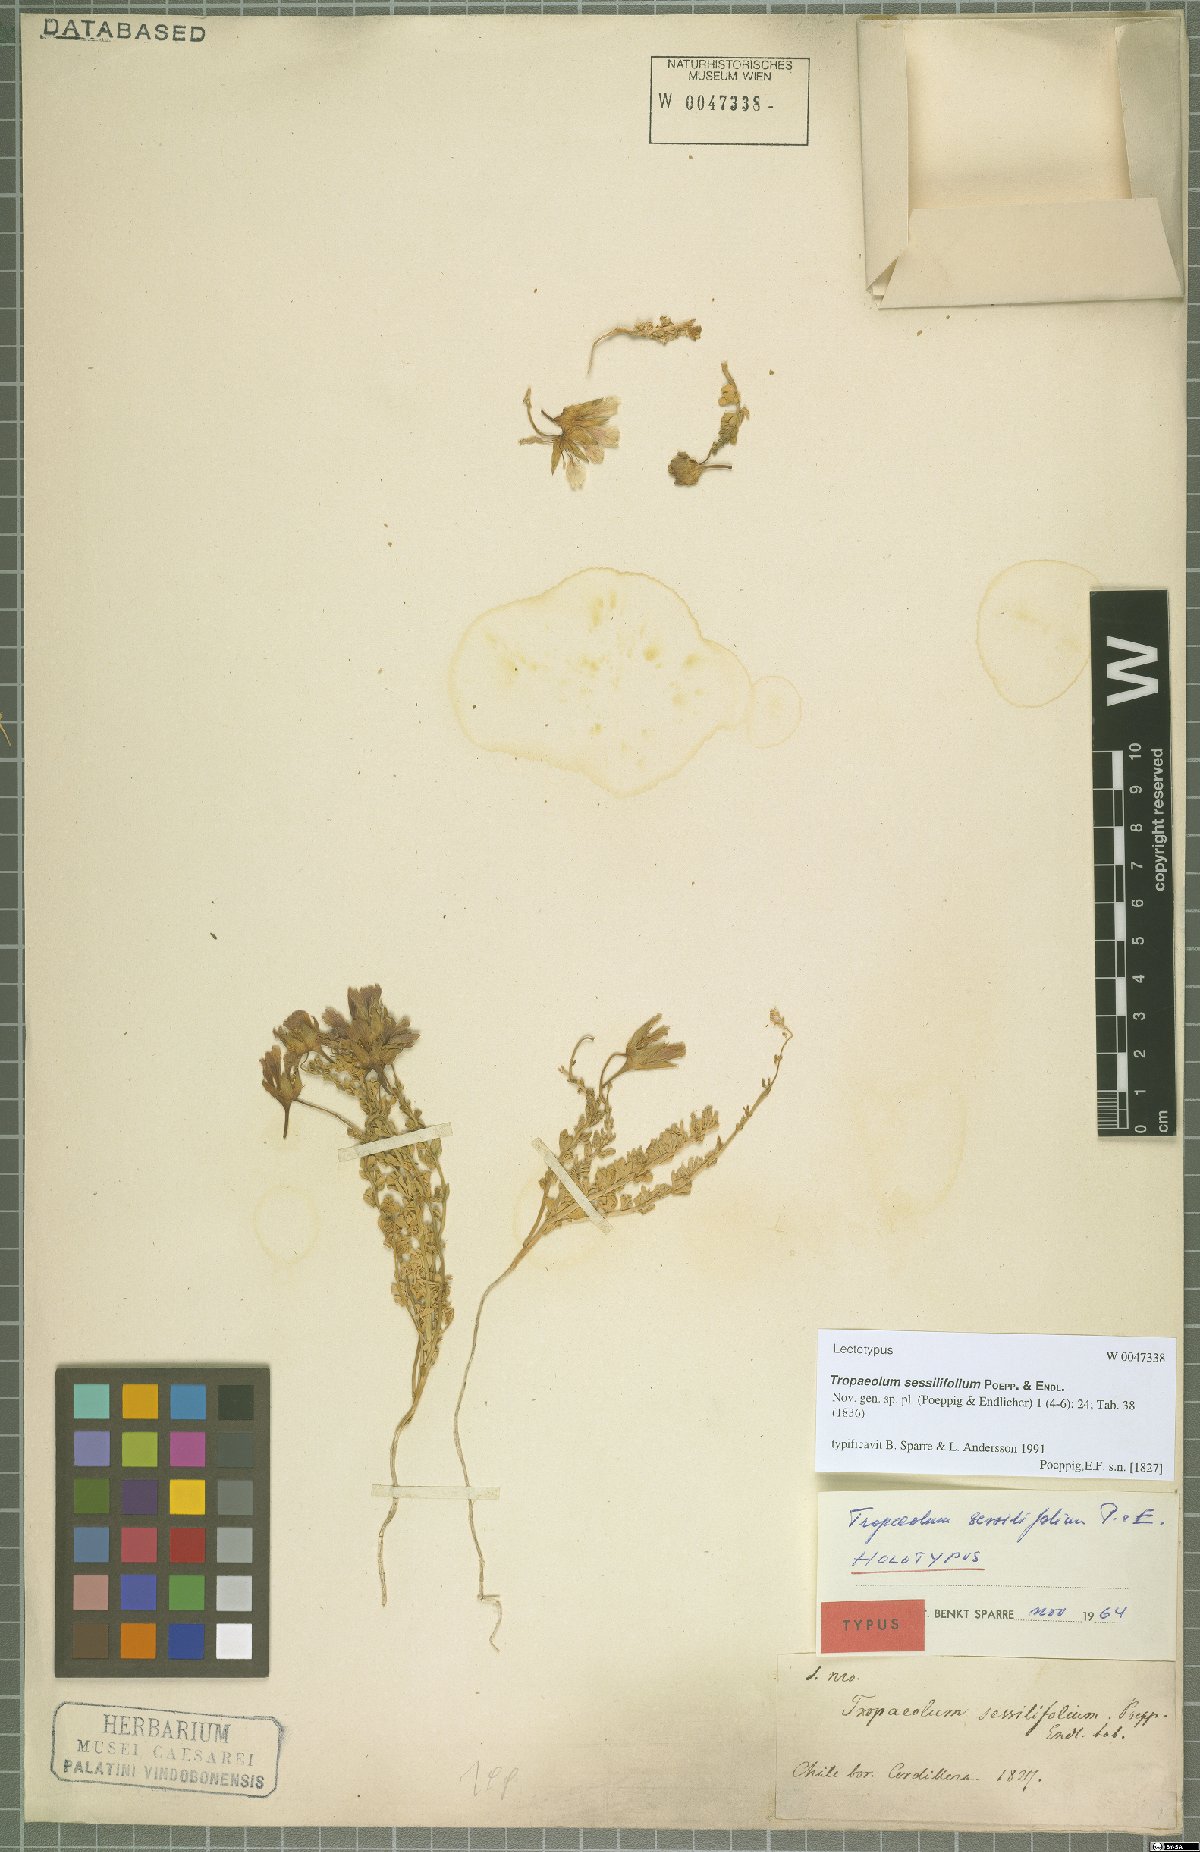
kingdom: Plantae
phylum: Tracheophyta
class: Magnoliopsida
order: Brassicales
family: Tropaeolaceae
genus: Tropaeolum
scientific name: Tropaeolum sessilifolium
